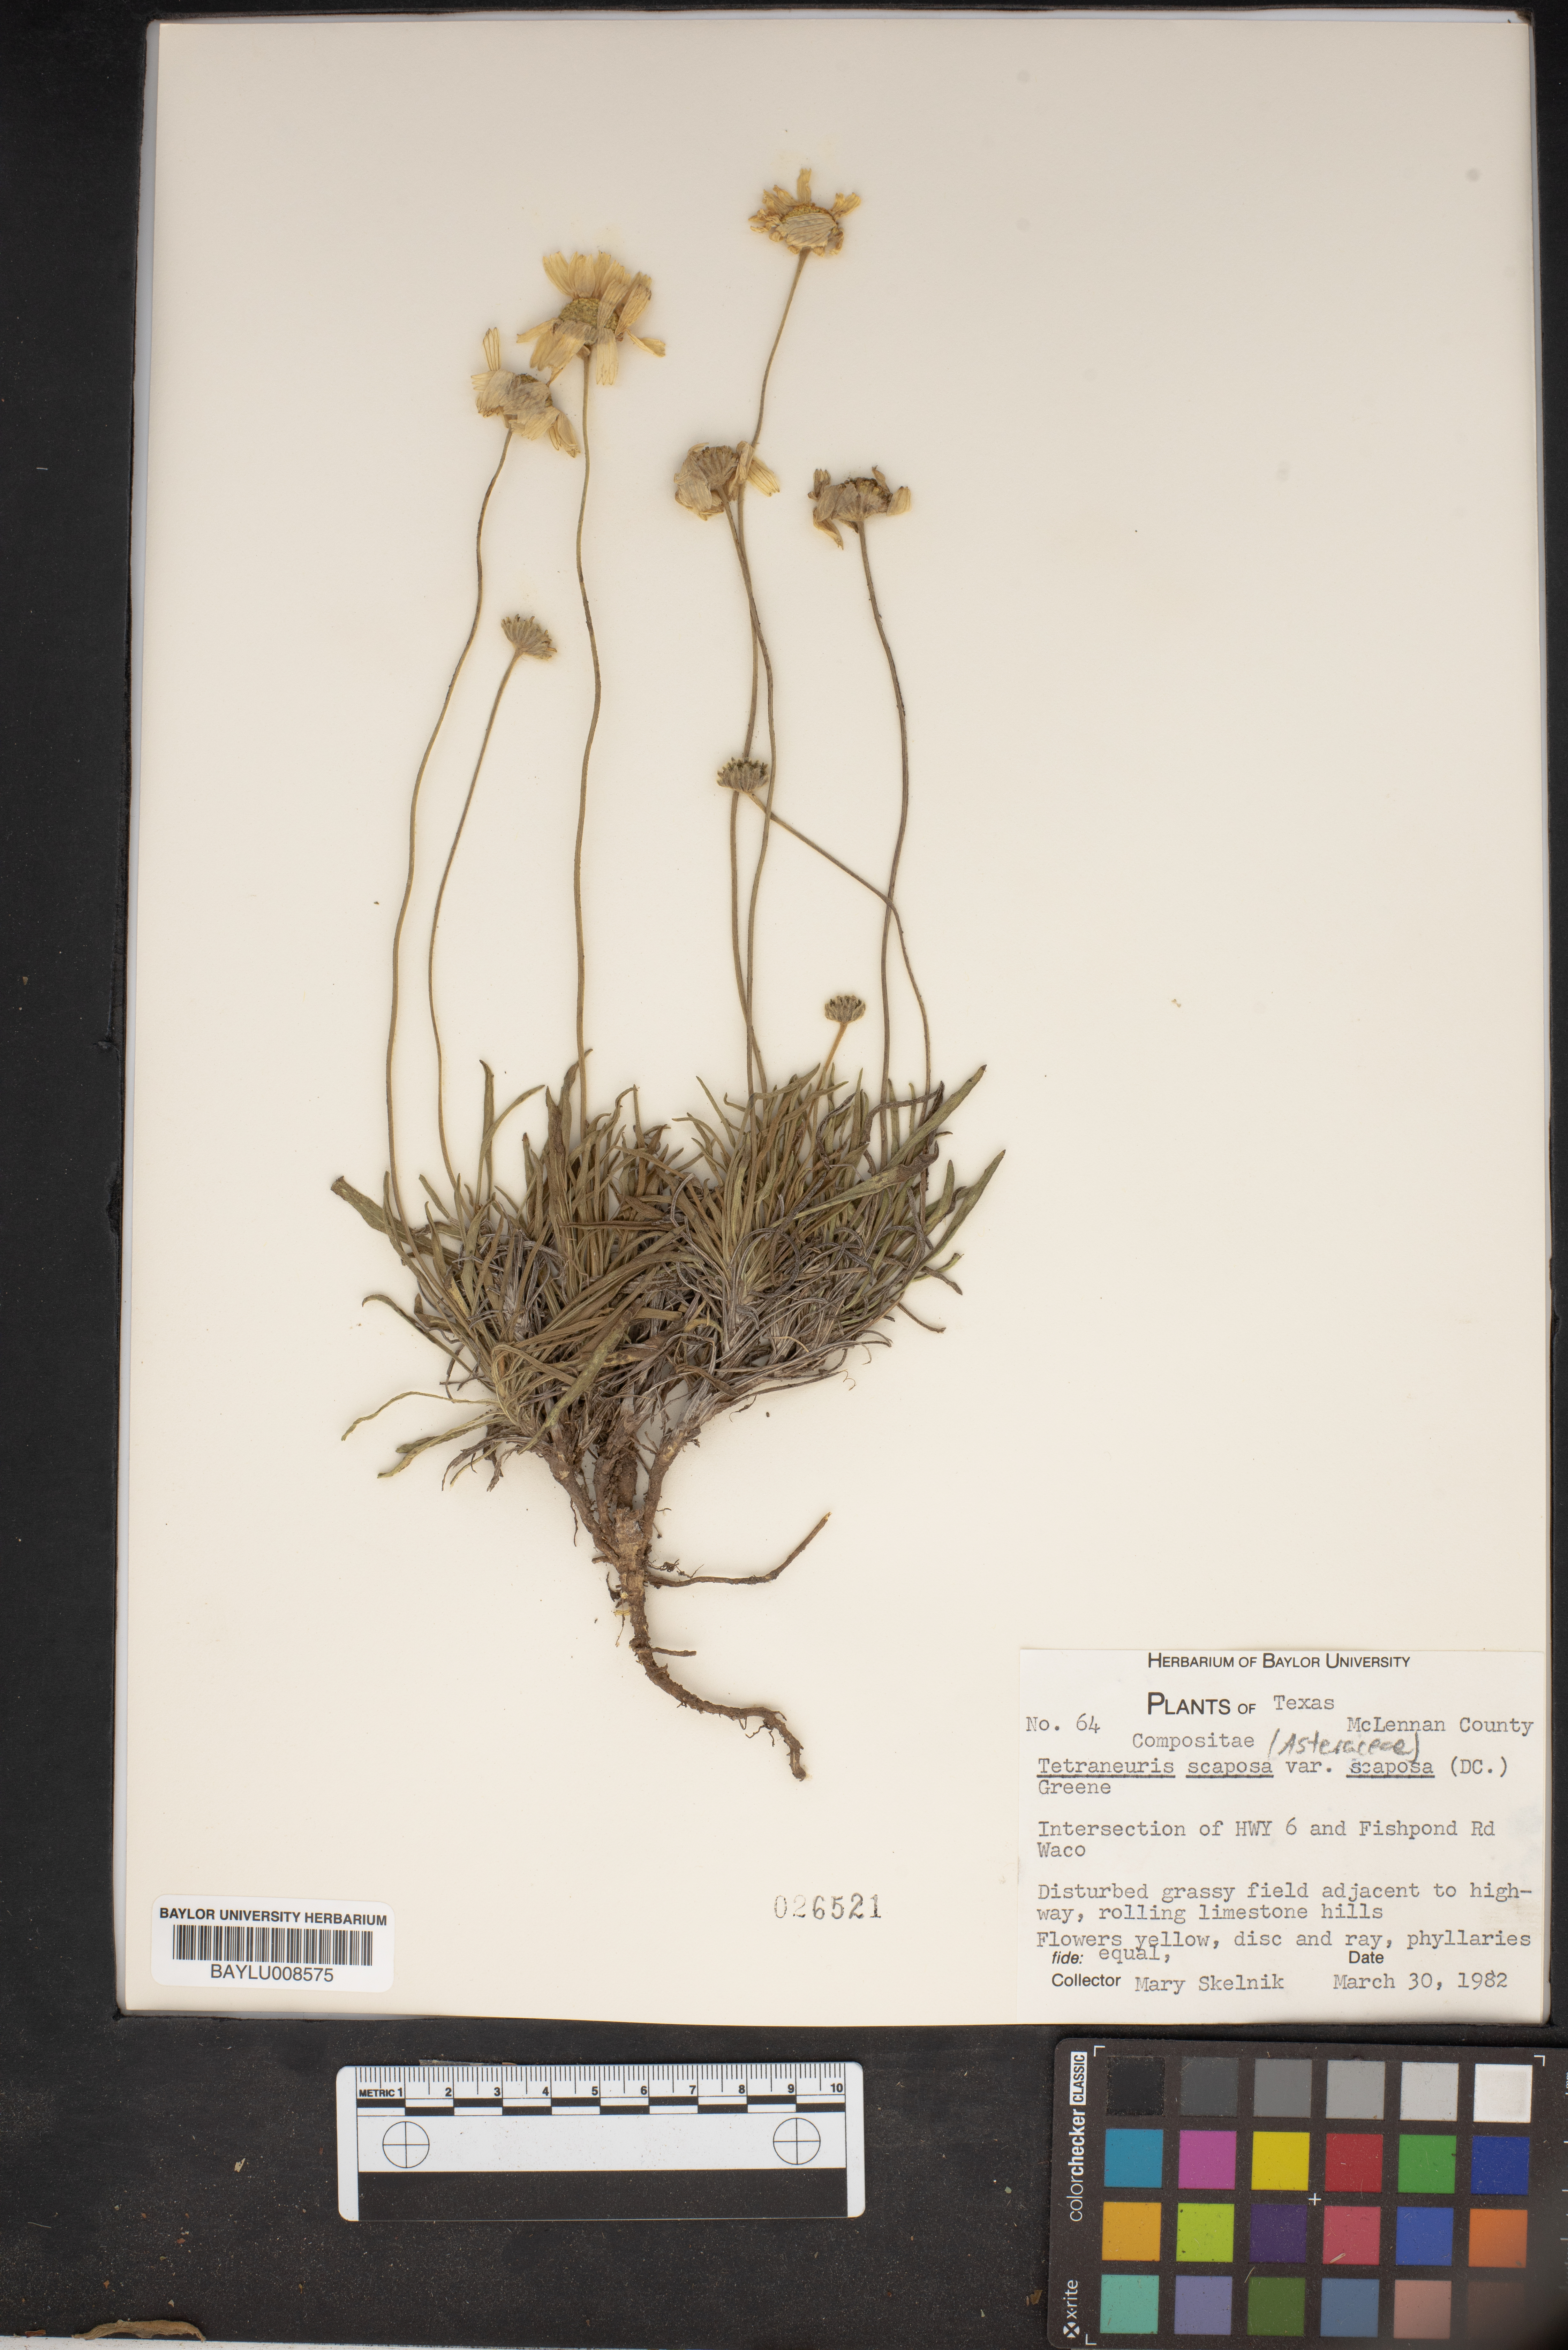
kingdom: Plantae
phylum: Tracheophyta
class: Magnoliopsida
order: Asterales
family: Asteraceae
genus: Tetraneuris
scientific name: Tetraneuris scaposa
